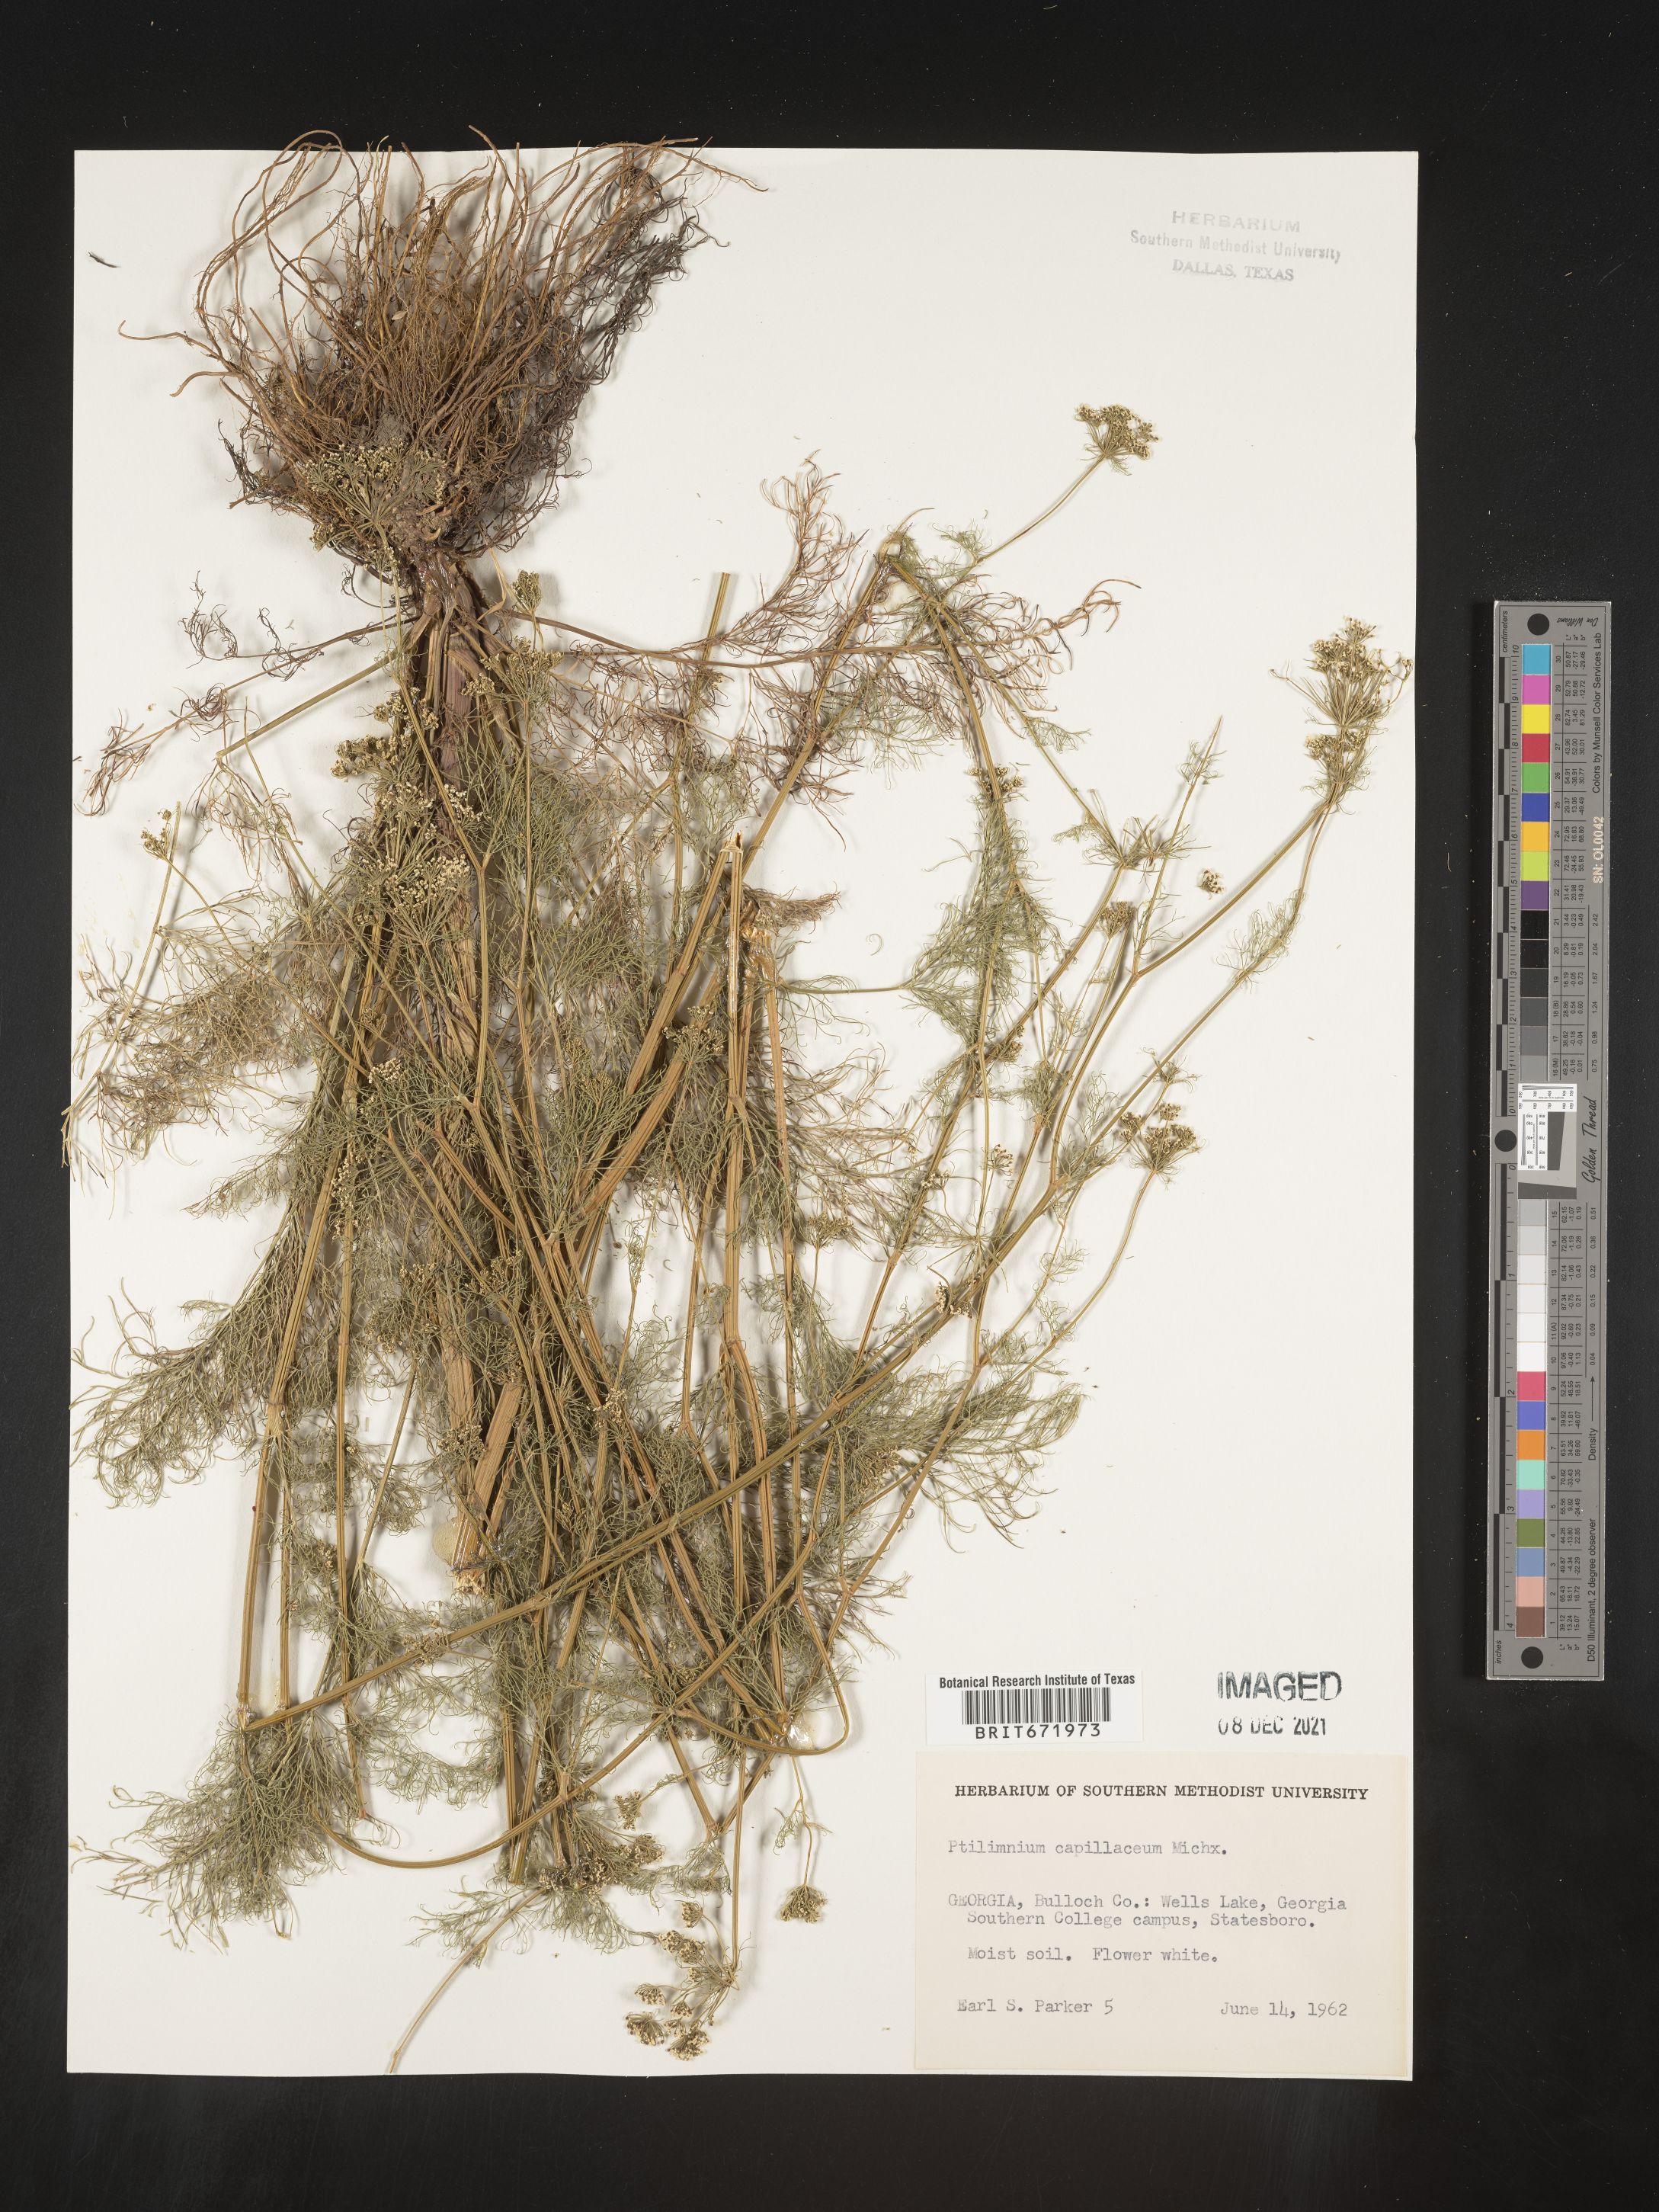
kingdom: Plantae
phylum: Tracheophyta
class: Magnoliopsida
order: Apiales
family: Apiaceae
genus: Ptilimnium
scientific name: Ptilimnium capillaceum
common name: Herbwilliam
